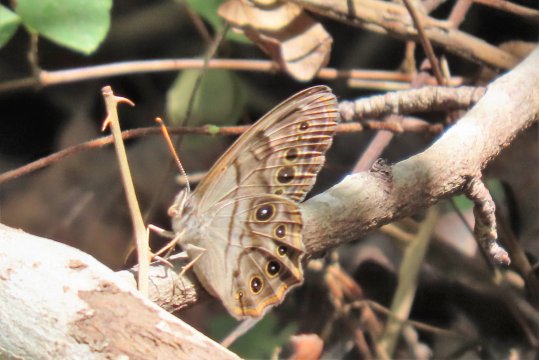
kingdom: Animalia
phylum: Arthropoda
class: Insecta
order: Lepidoptera
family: Nymphalidae
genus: Lethe
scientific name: Lethe anthedon
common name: Northern Pearly-Eye
